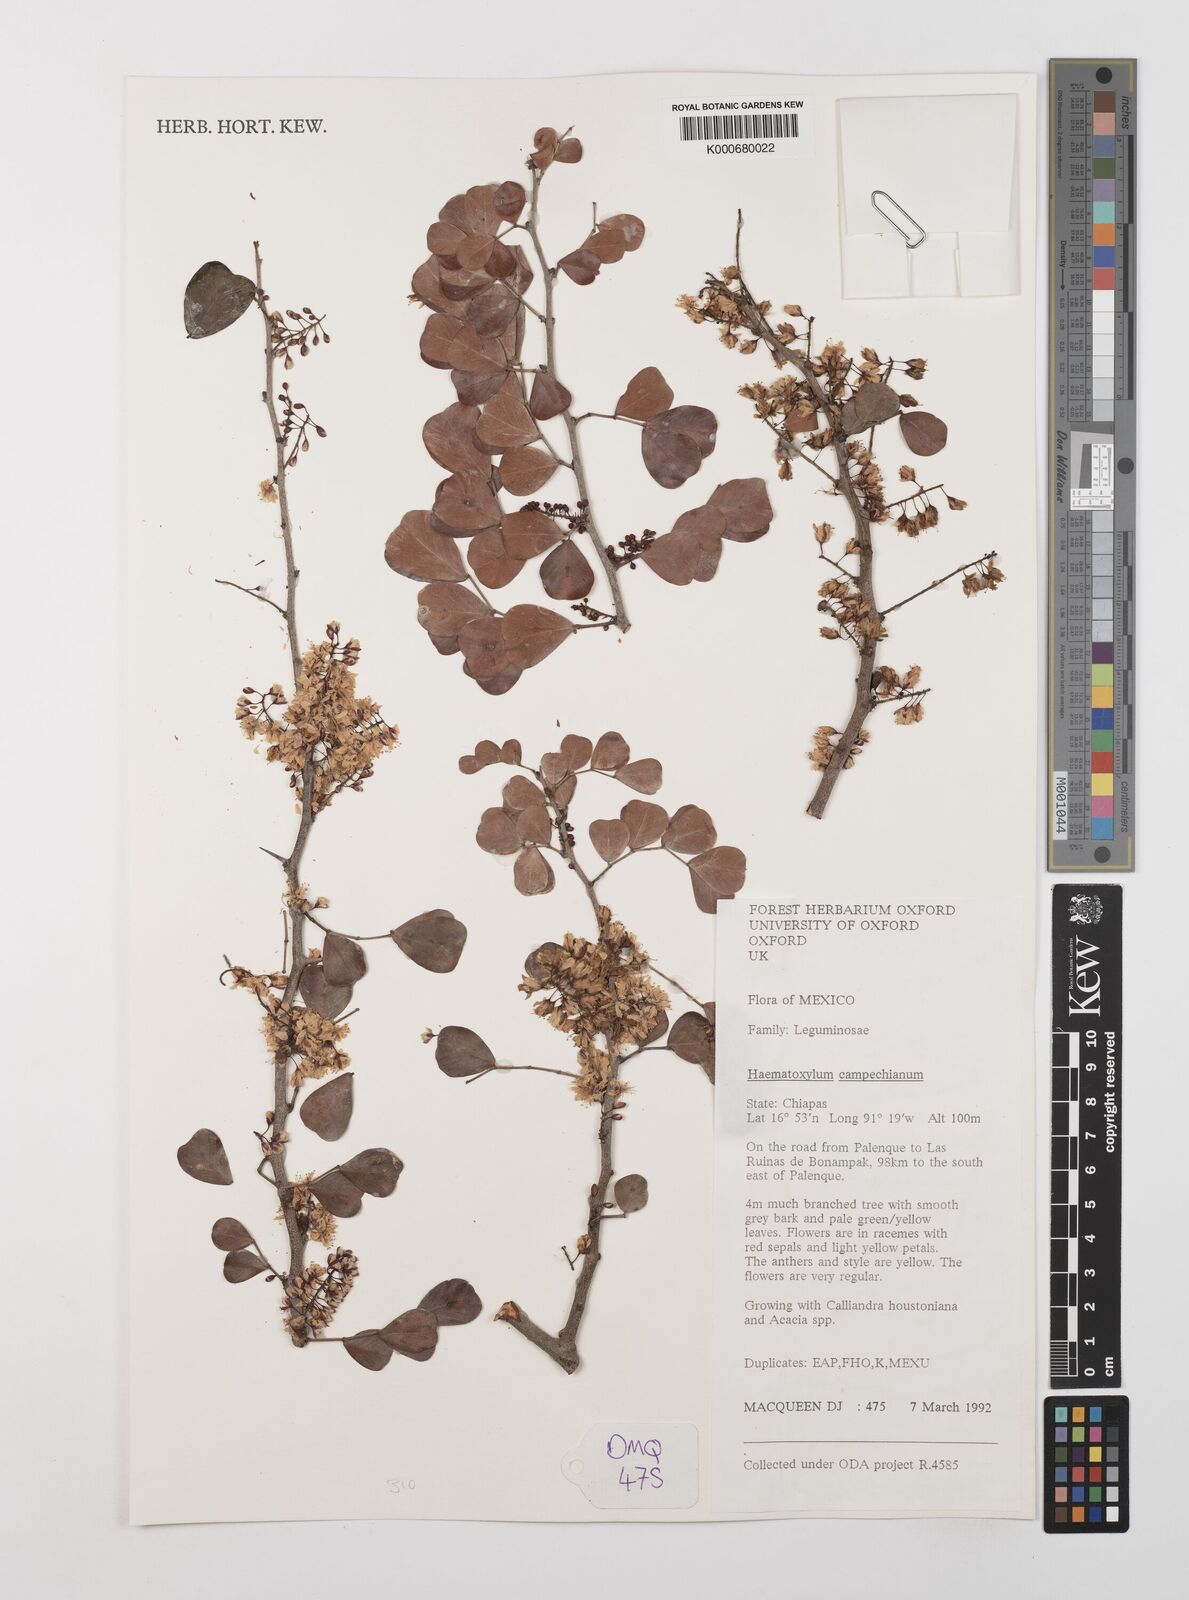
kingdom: Plantae
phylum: Tracheophyta
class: Magnoliopsida
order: Fabales
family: Fabaceae
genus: Haematoxylum
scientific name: Haematoxylum
